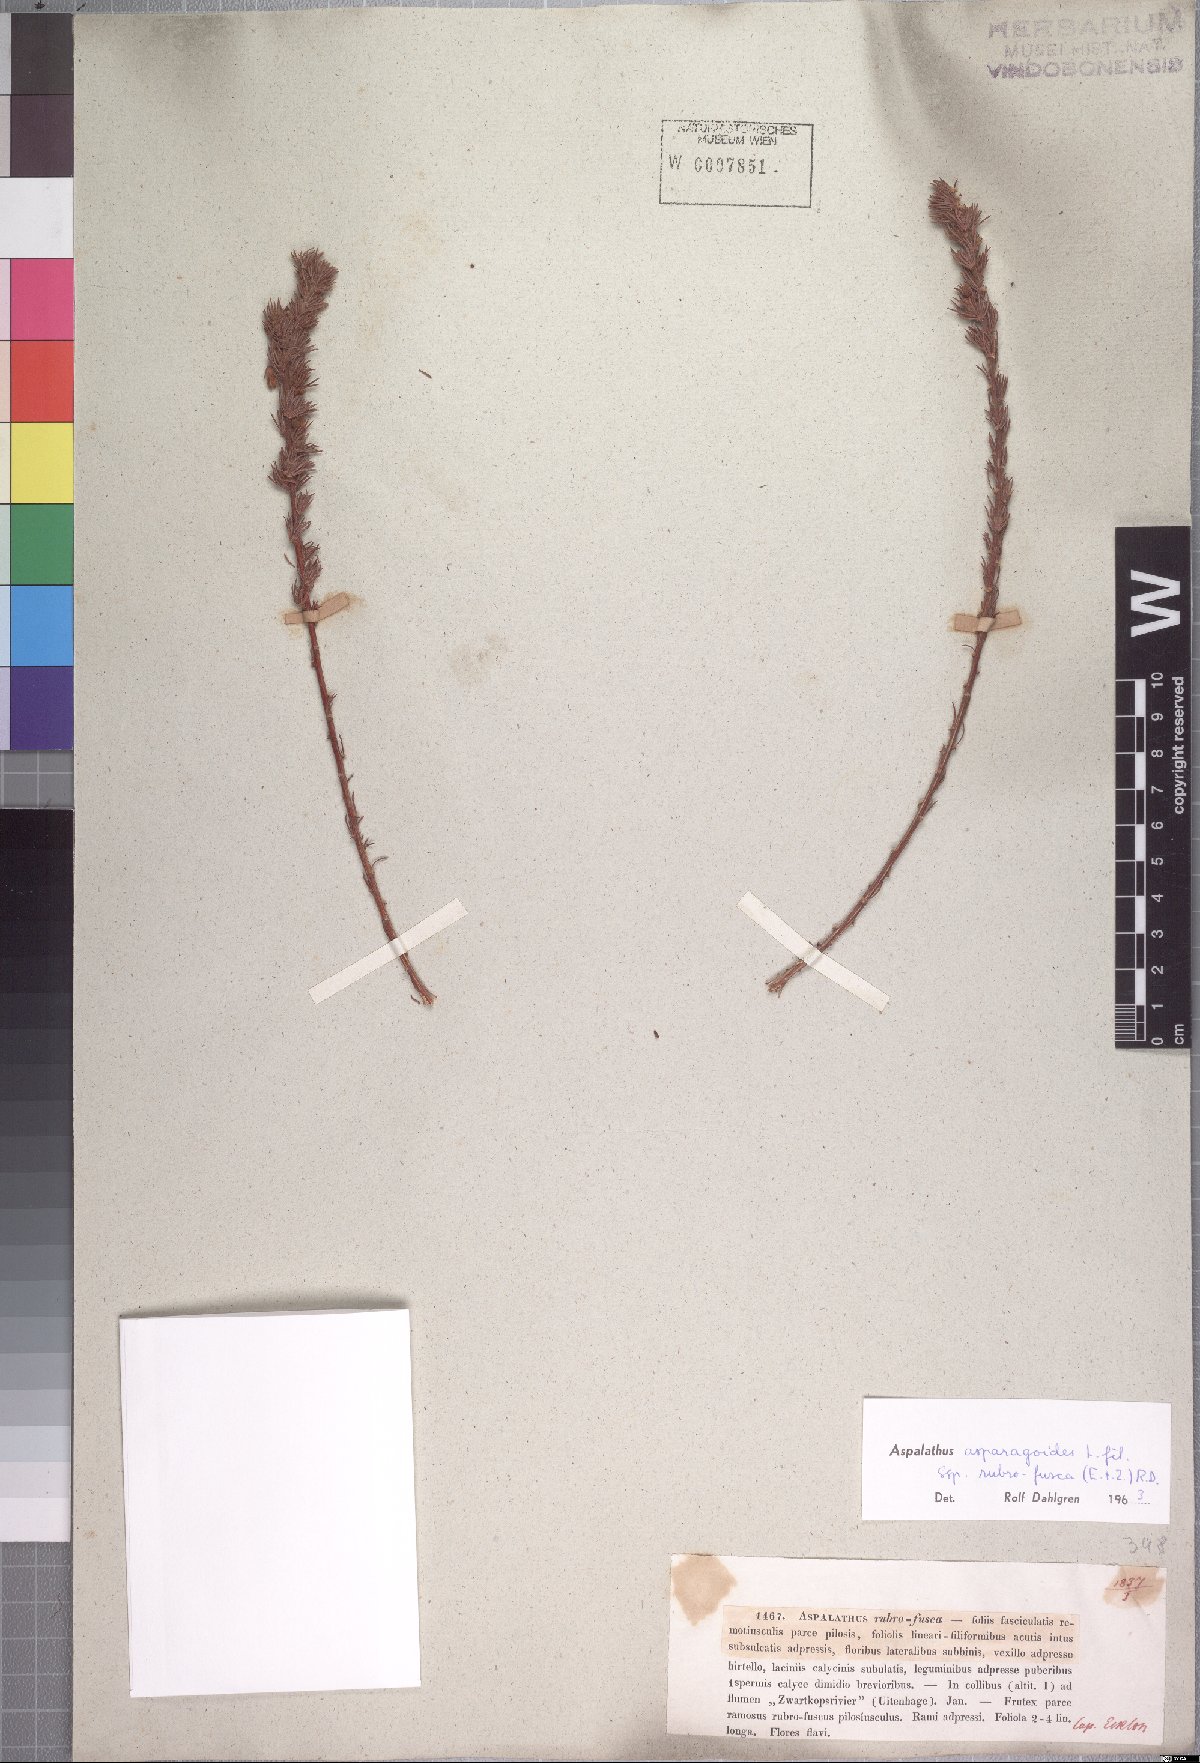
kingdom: Plantae
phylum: Tracheophyta
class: Magnoliopsida
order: Fabales
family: Fabaceae
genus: Aspalathus
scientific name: Aspalathus asparagoides
